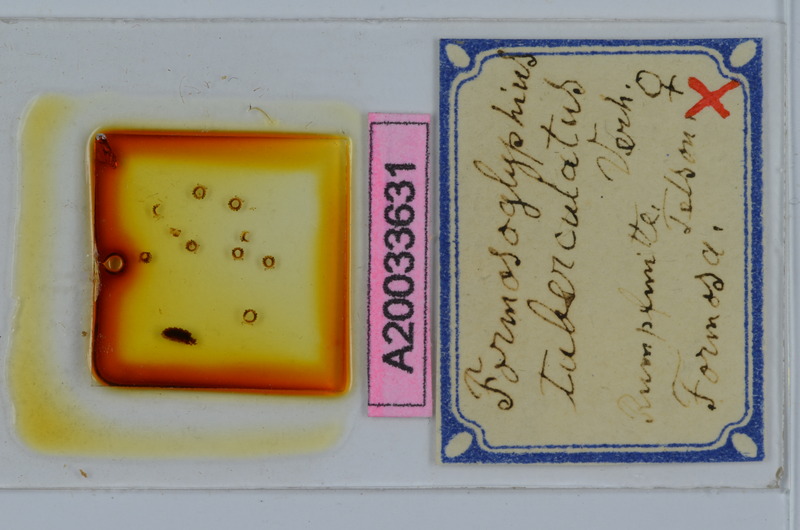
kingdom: Animalia
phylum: Arthropoda
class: Diplopoda
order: Spirostreptida
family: Cambalopsidae
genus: Glyphiulus
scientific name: Glyphiulus granulatus
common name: Millipede
